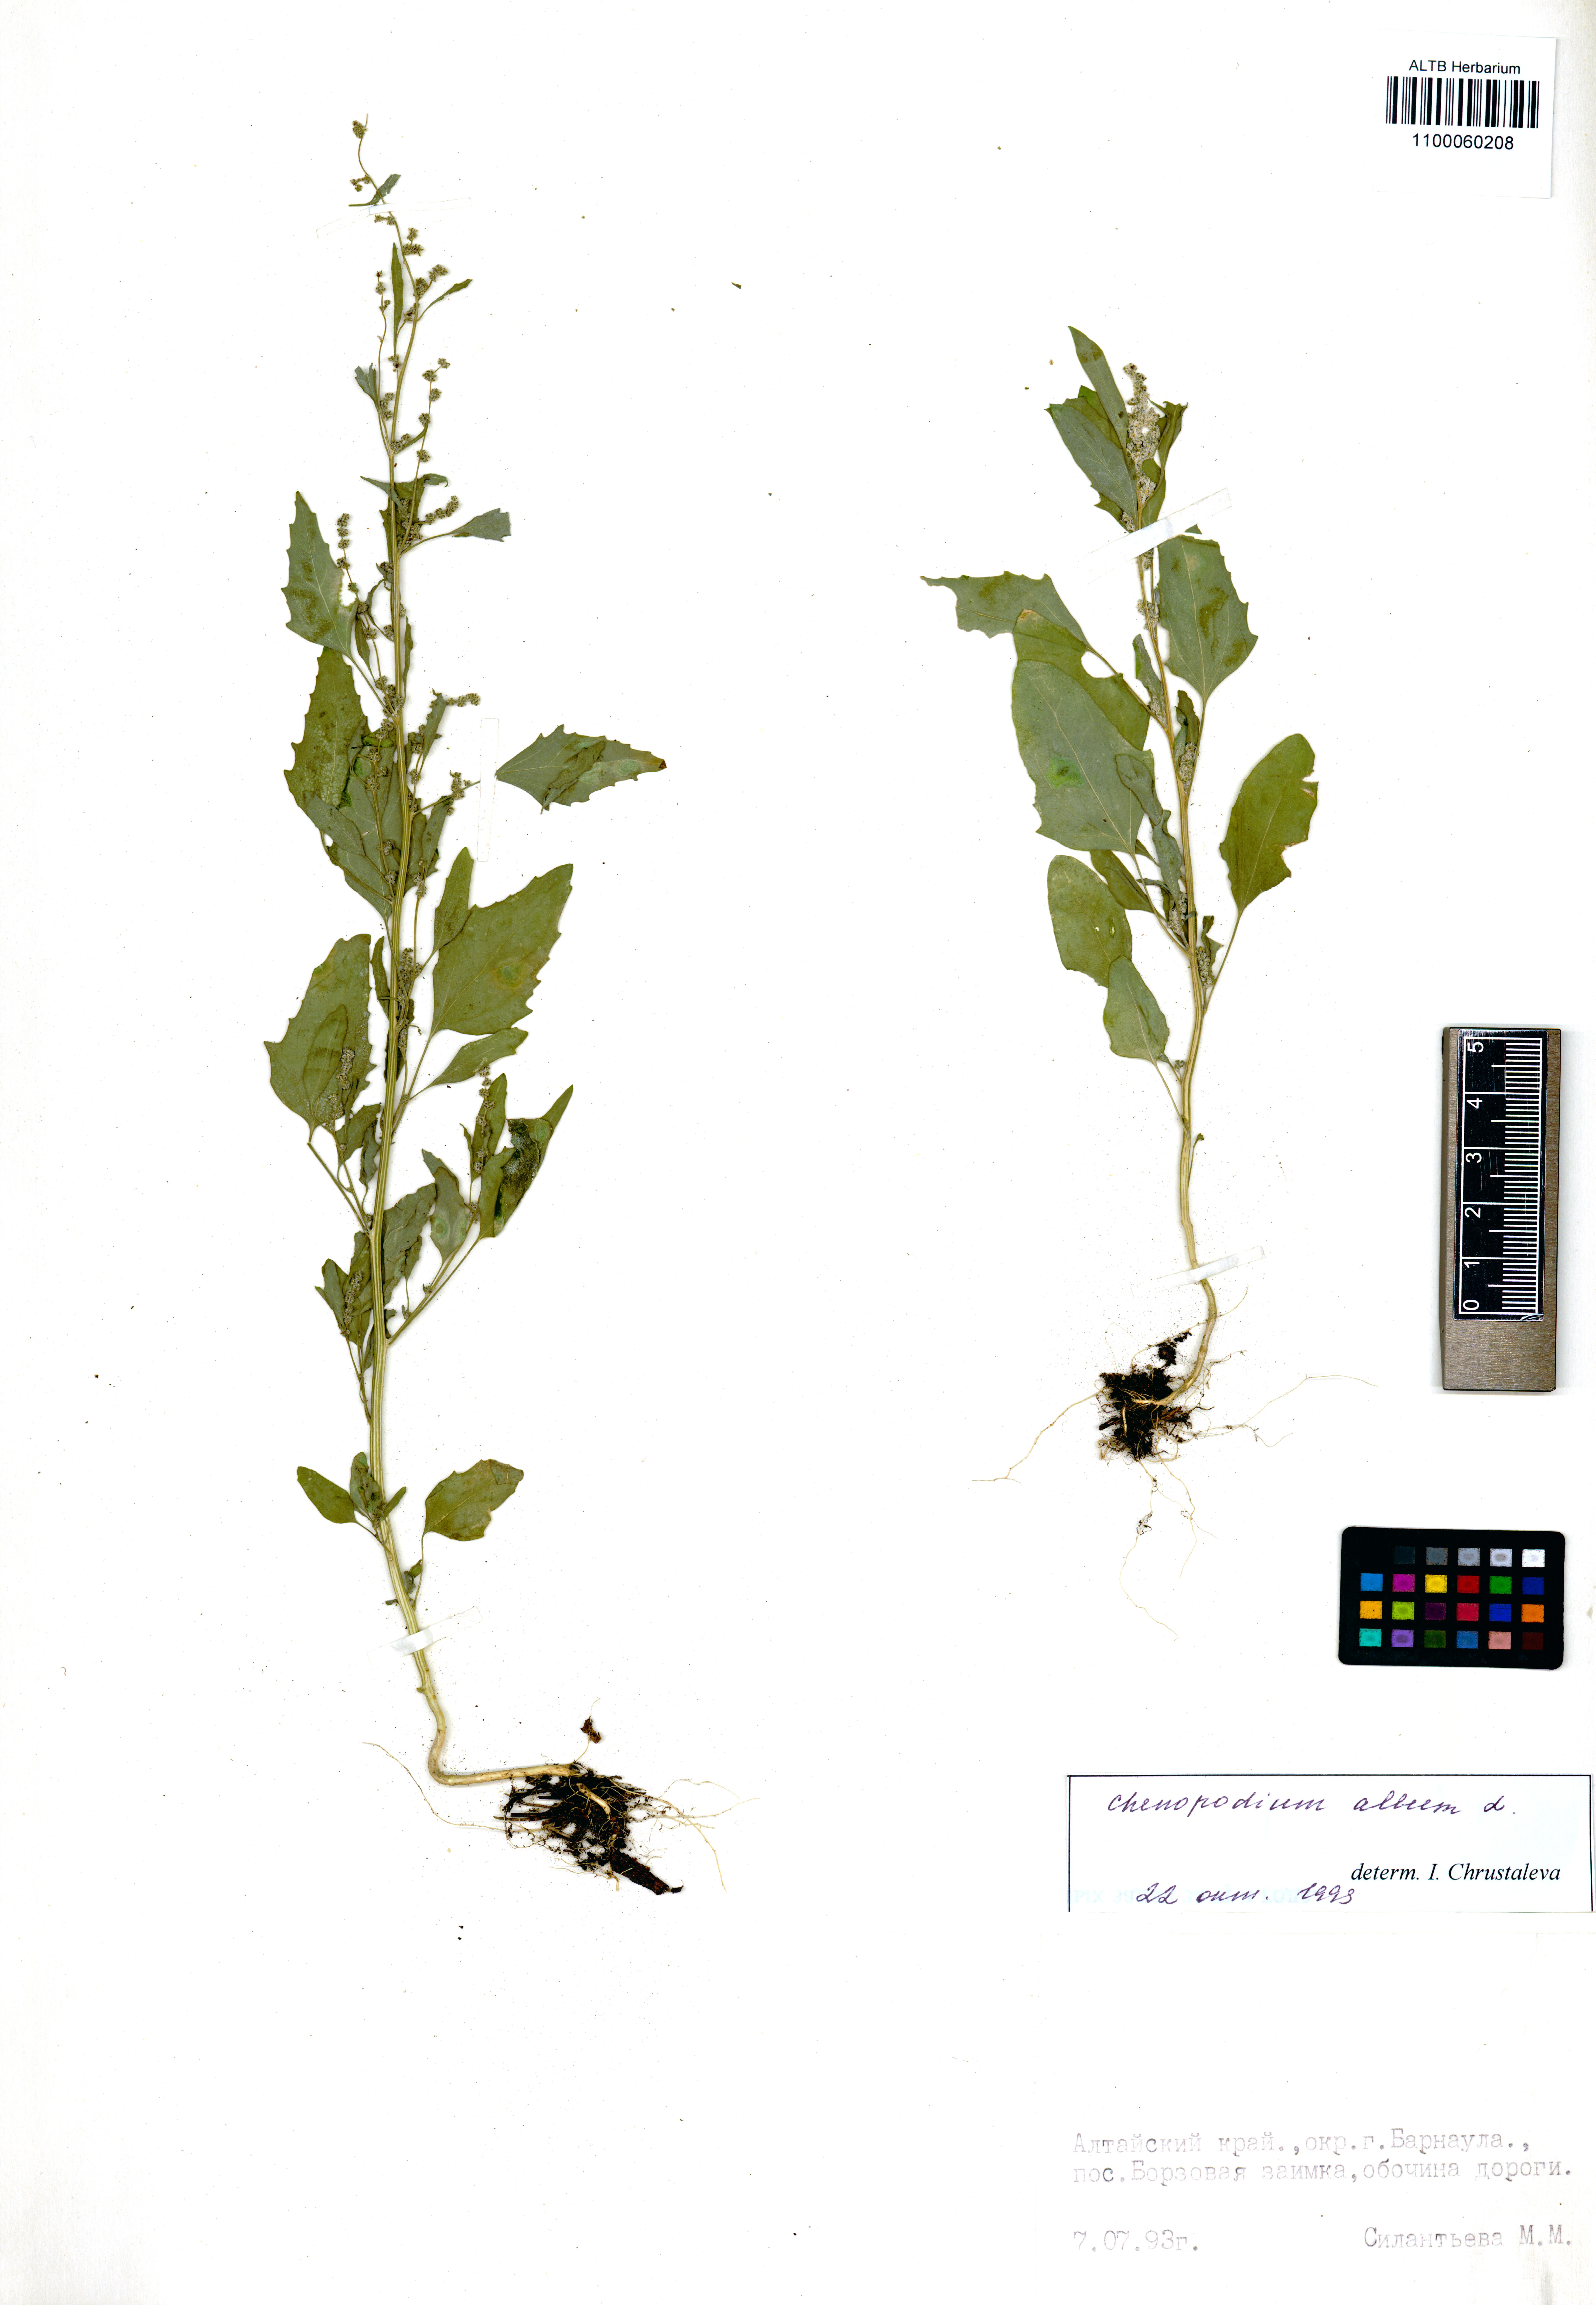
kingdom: Plantae
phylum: Tracheophyta
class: Magnoliopsida
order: Boraginales
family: Boraginaceae
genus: Myosotis
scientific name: Myosotis arvensis
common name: Field forget-me-not
